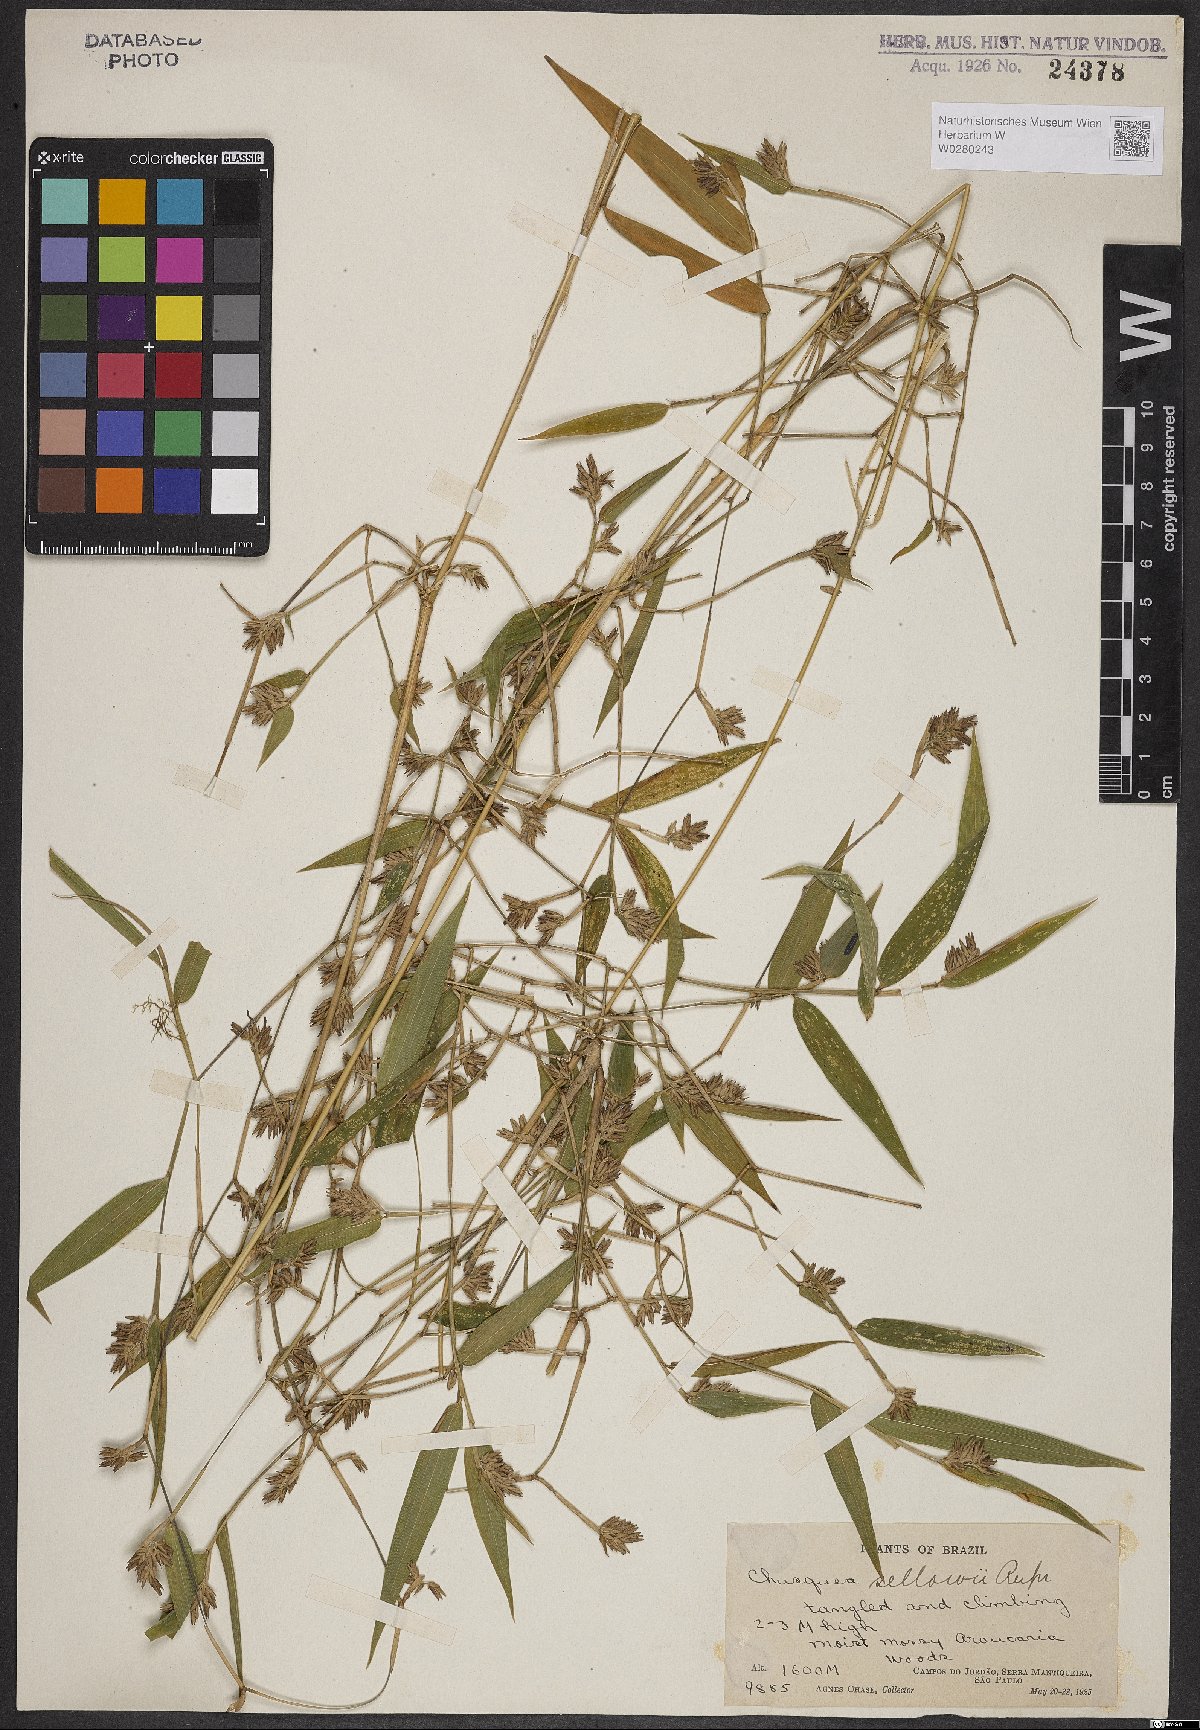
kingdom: Plantae
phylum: Tracheophyta
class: Liliopsida
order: Poales
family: Poaceae
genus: Chusquea
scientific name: Chusquea sellowii
